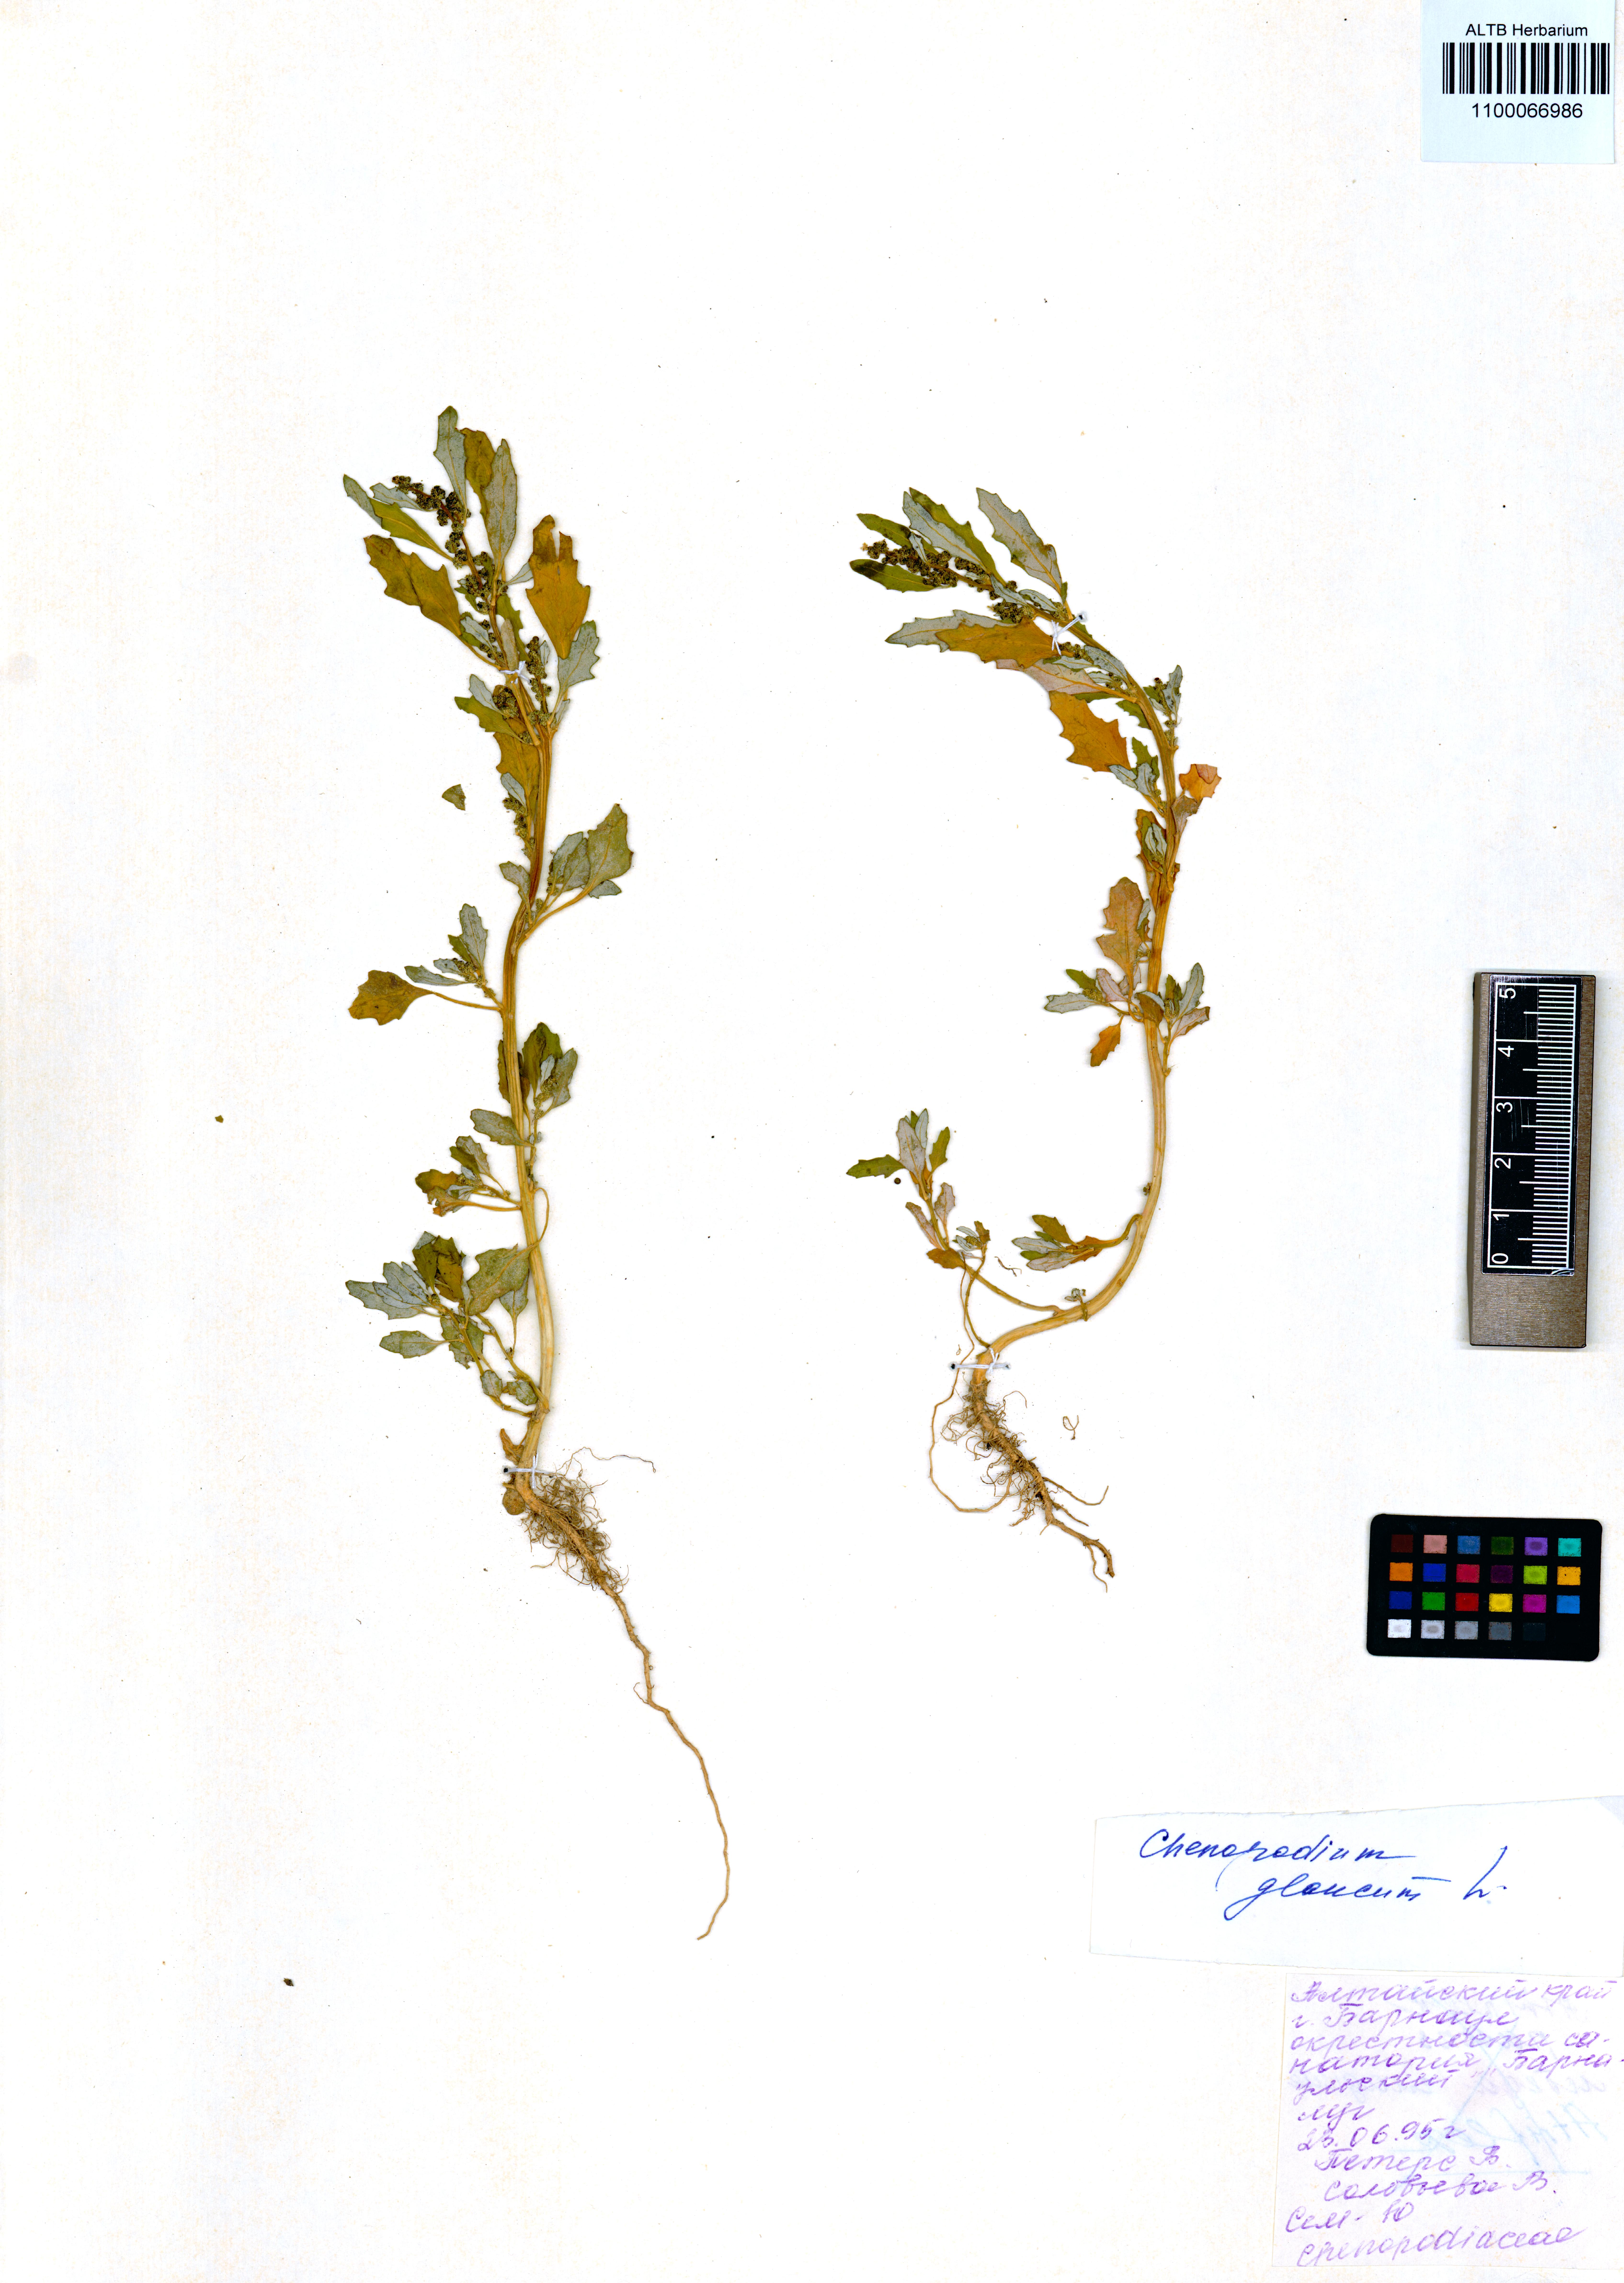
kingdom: Plantae
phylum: Tracheophyta
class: Magnoliopsida
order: Caryophyllales
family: Amaranthaceae
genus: Oxybasis
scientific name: Oxybasis glauca
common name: Glaucous goosefoot
